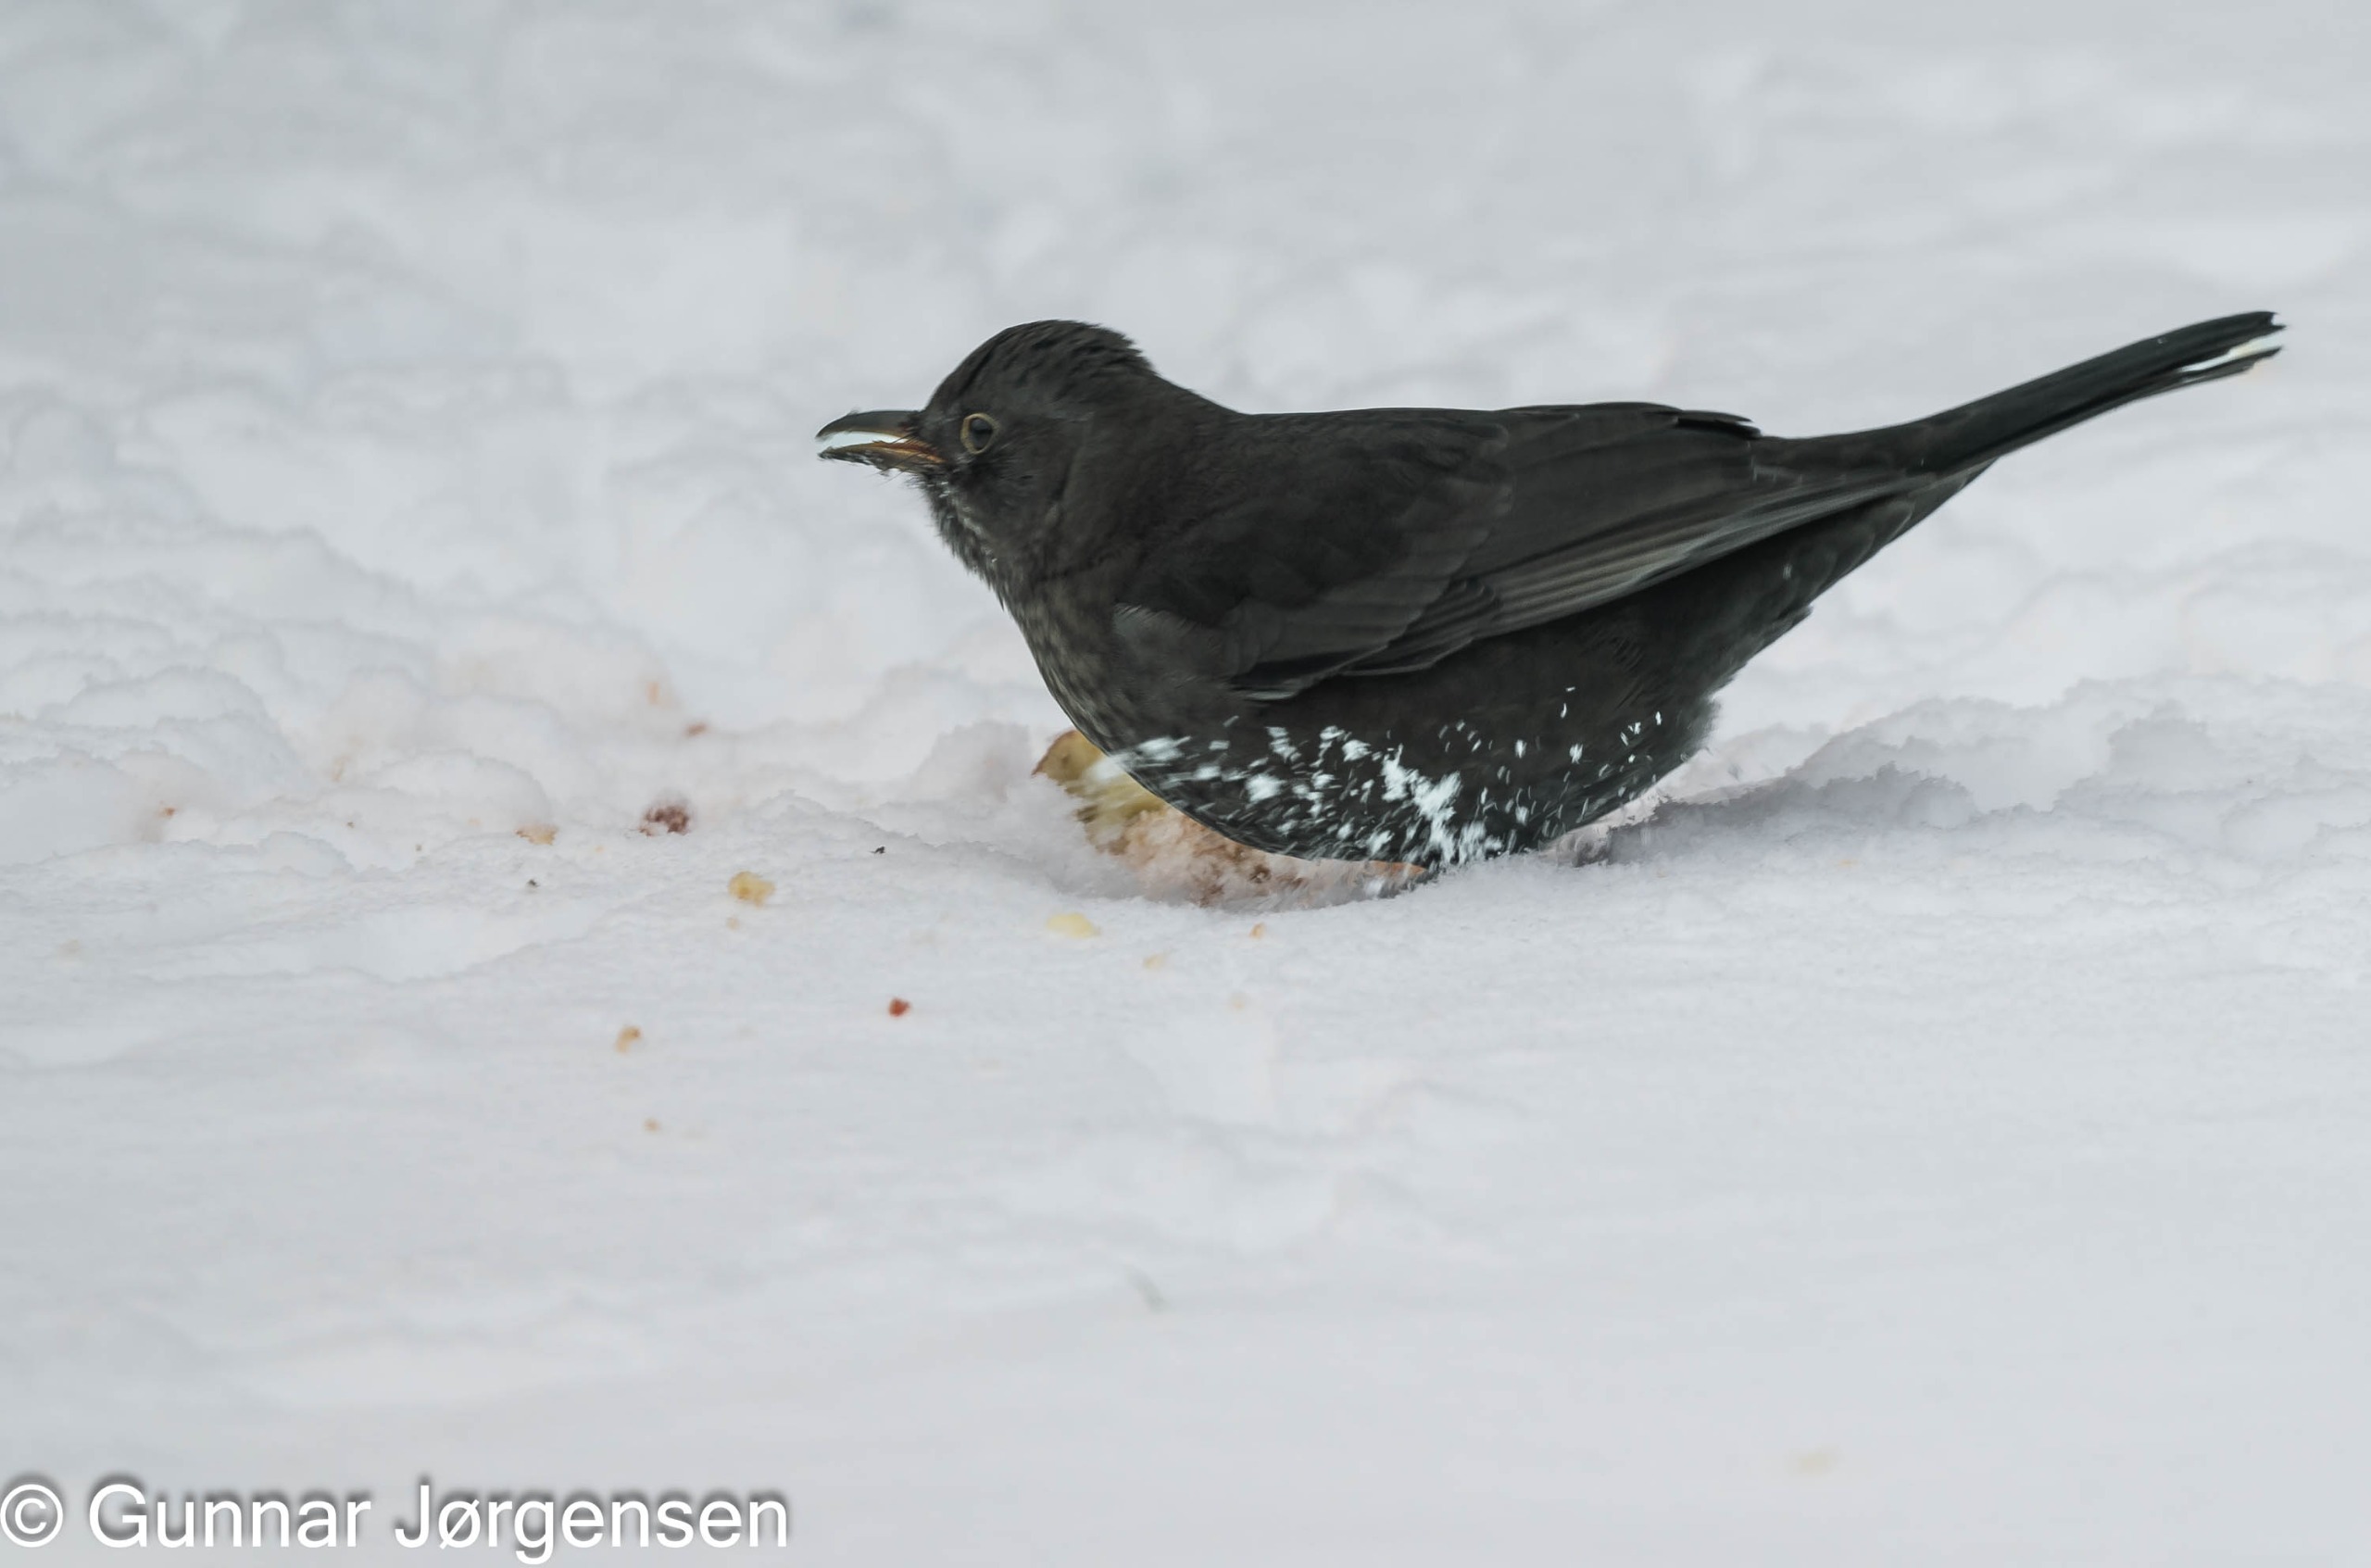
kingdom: Animalia
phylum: Chordata
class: Aves
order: Passeriformes
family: Turdidae
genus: Turdus
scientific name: Turdus merula
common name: Solsort
